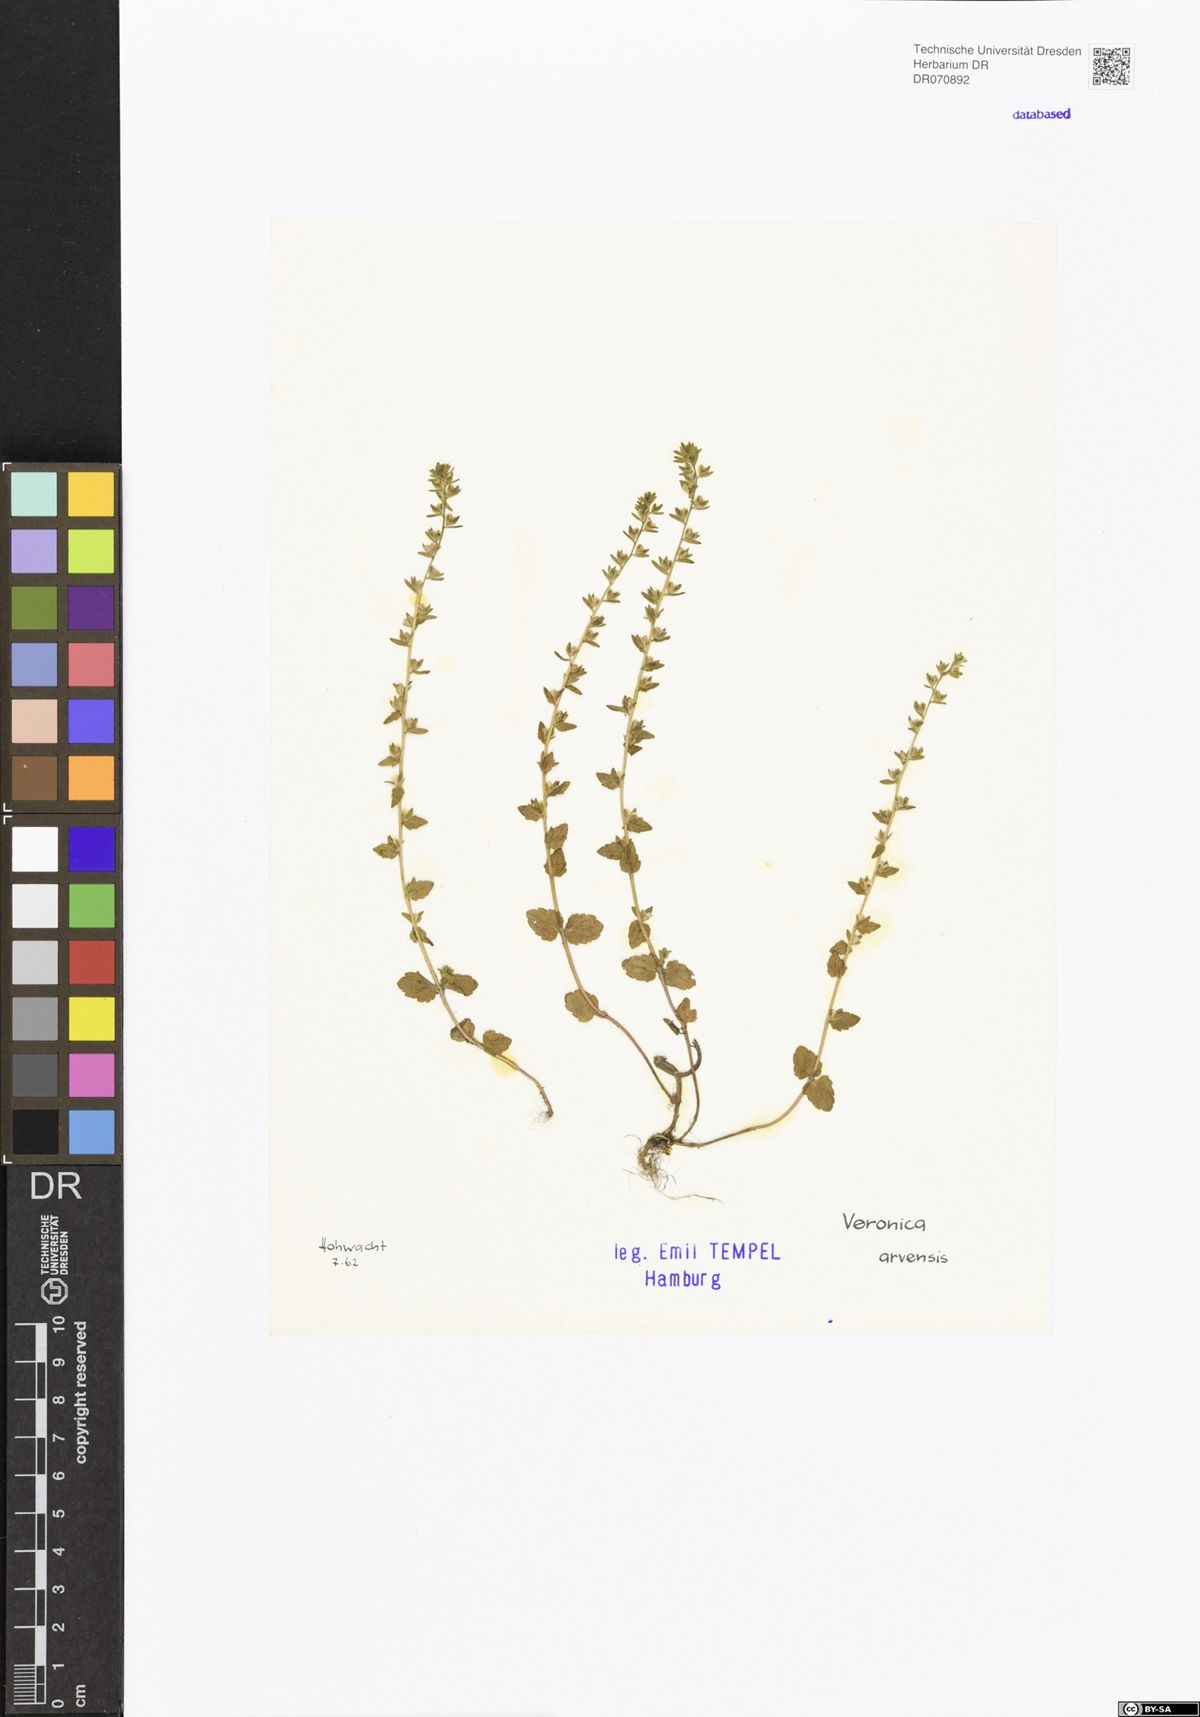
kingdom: Plantae
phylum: Tracheophyta
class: Magnoliopsida
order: Lamiales
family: Plantaginaceae
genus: Veronica
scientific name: Veronica arvensis
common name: Corn speedwell
